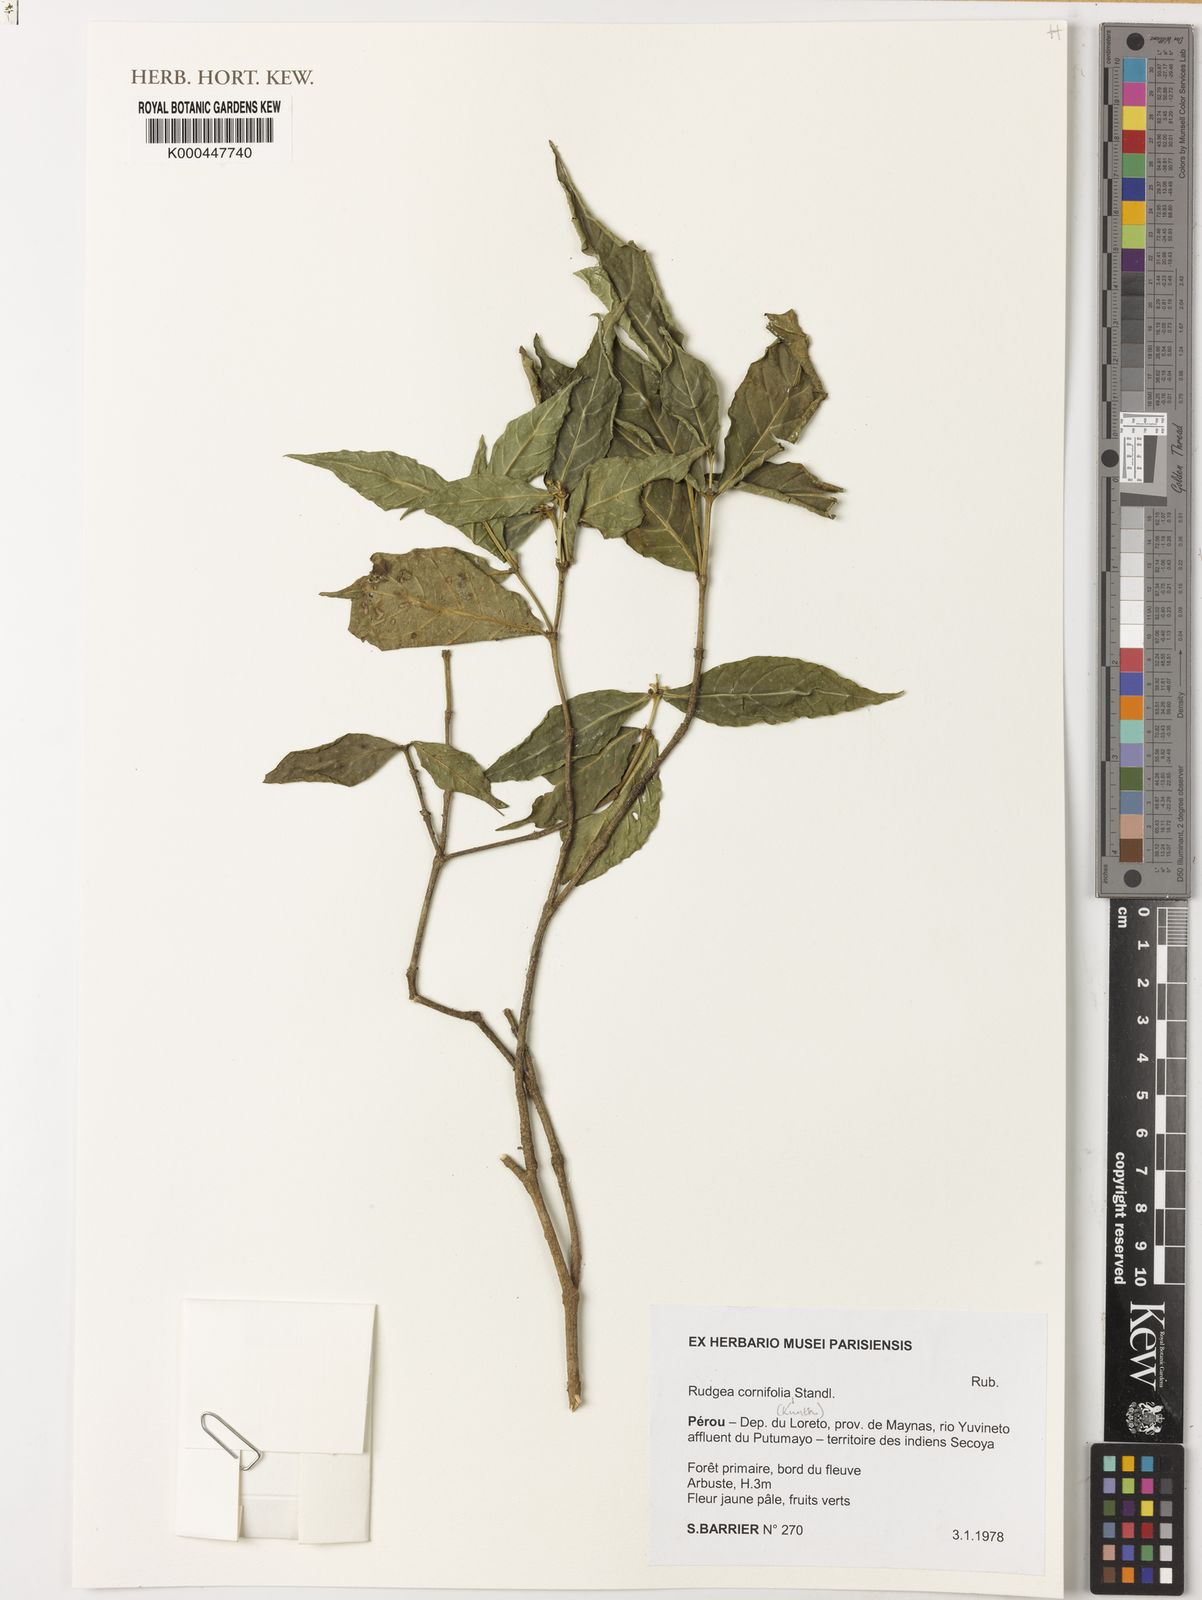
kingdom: Plantae
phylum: Tracheophyta
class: Magnoliopsida
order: Gentianales
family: Rubiaceae
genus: Rudgea
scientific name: Rudgea cornifolia
